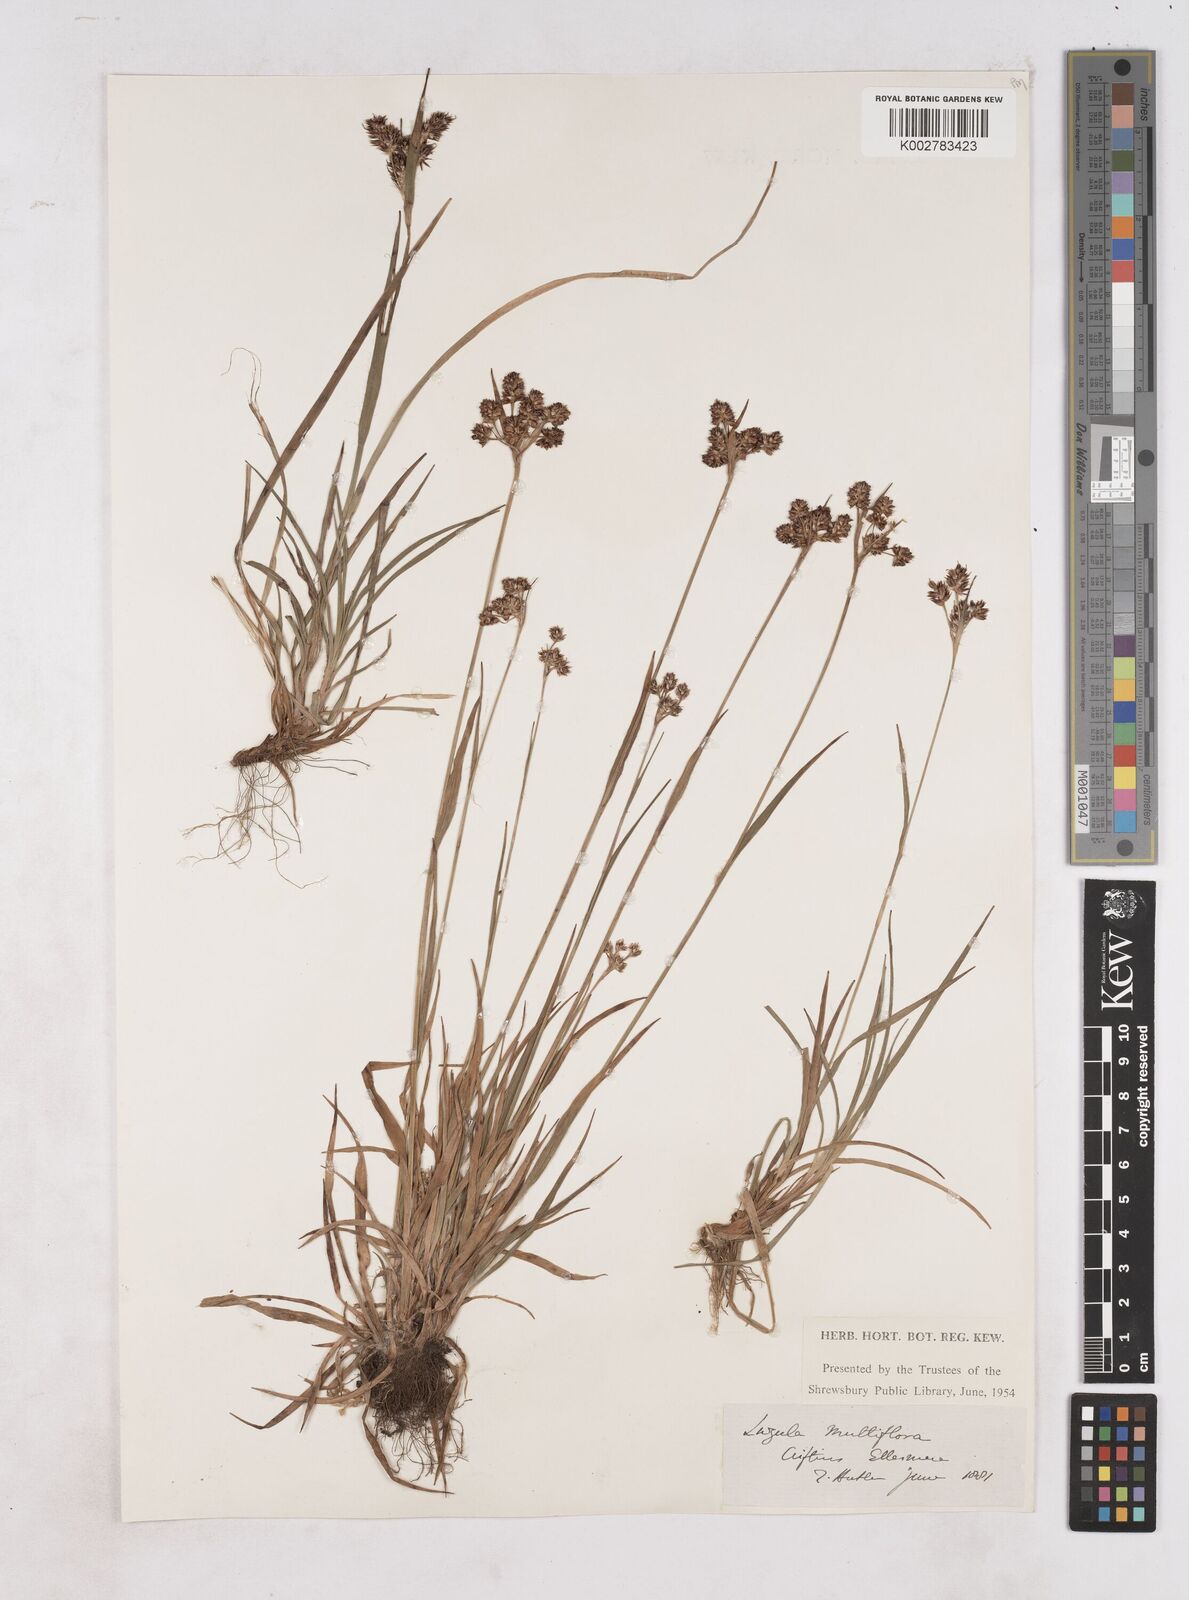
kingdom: Plantae
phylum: Tracheophyta
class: Liliopsida
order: Poales
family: Juncaceae
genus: Luzula
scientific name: Luzula multiflora
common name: Heath wood-rush
